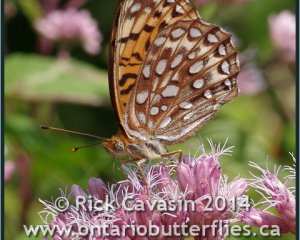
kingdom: Animalia
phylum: Arthropoda
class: Insecta
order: Lepidoptera
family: Nymphalidae
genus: Speyeria
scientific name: Speyeria atlantis
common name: Atlantis Fritillary
